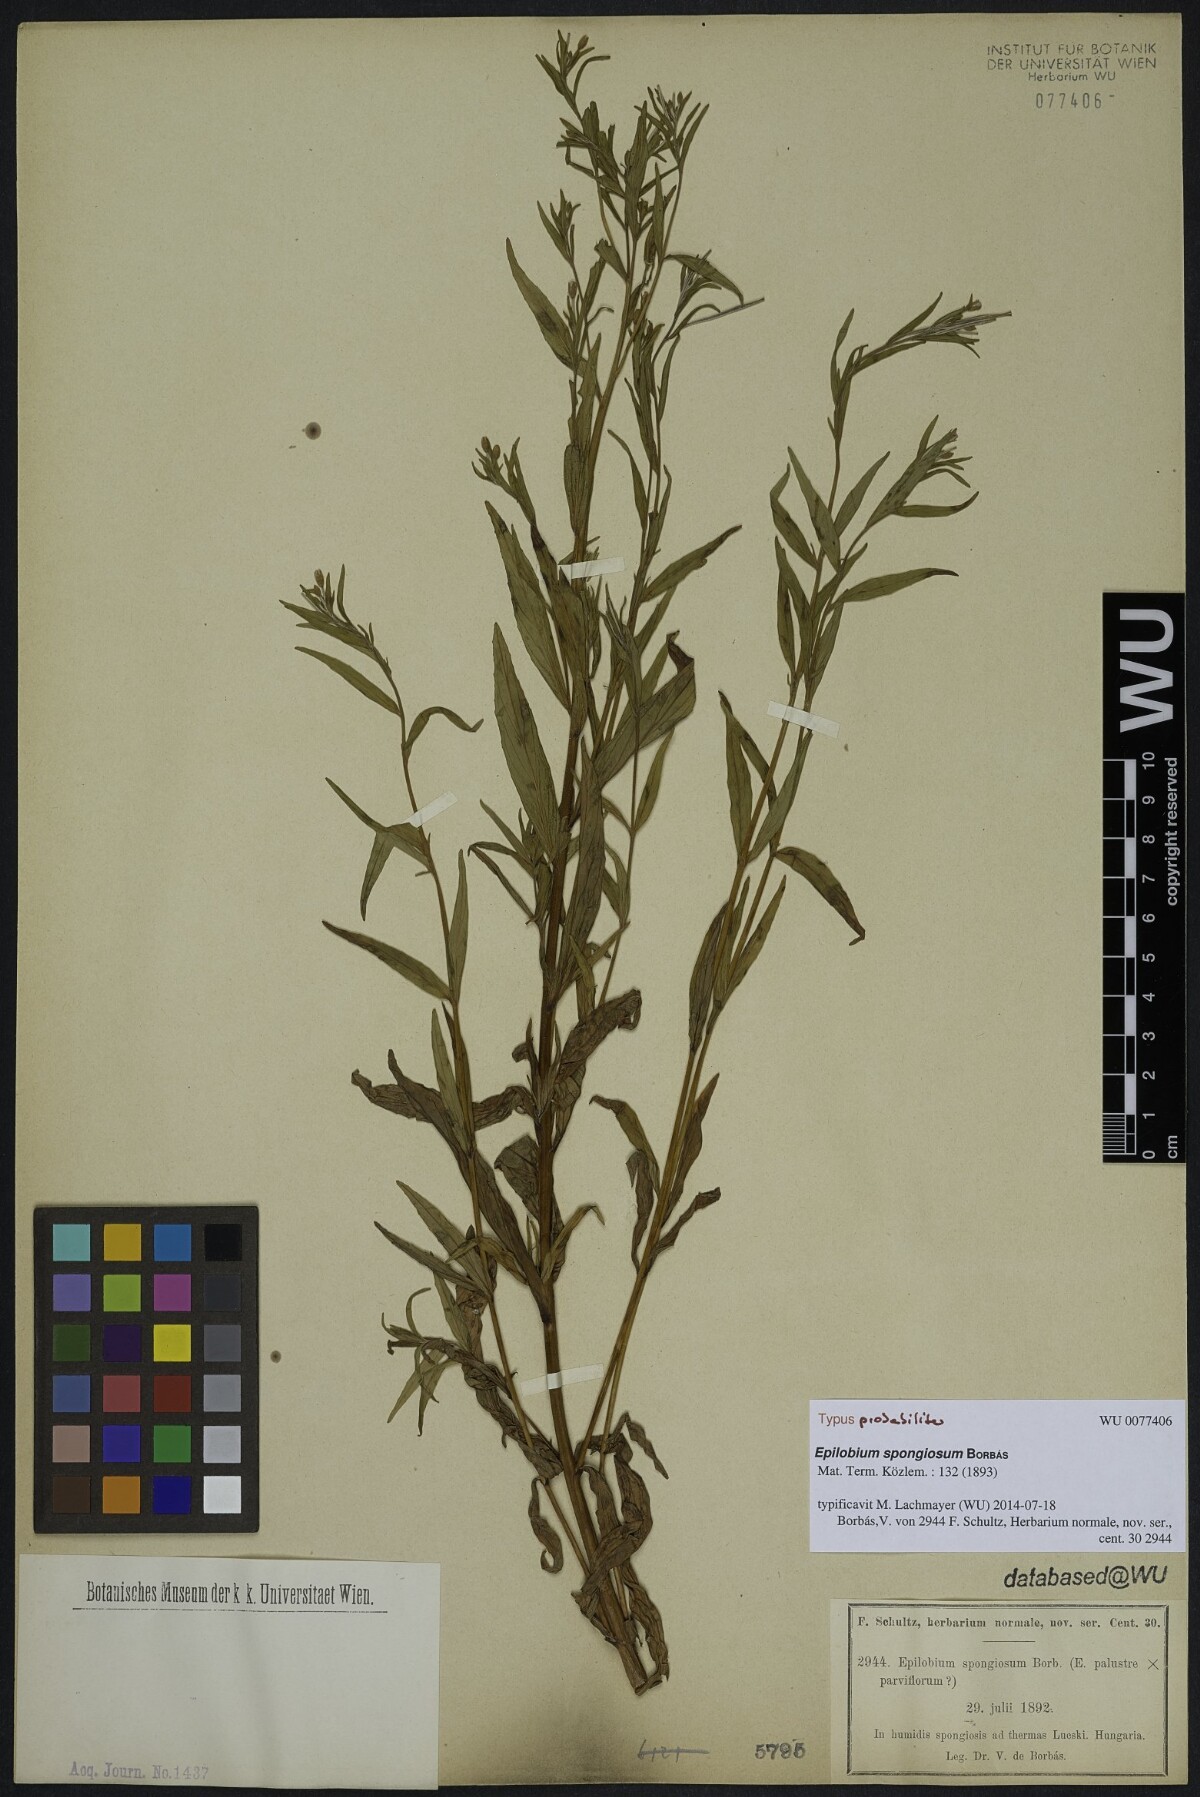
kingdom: Plantae
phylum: Tracheophyta
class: Magnoliopsida
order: Myrtales
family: Onagraceae
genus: Epilobium
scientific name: Epilobium rivulare
